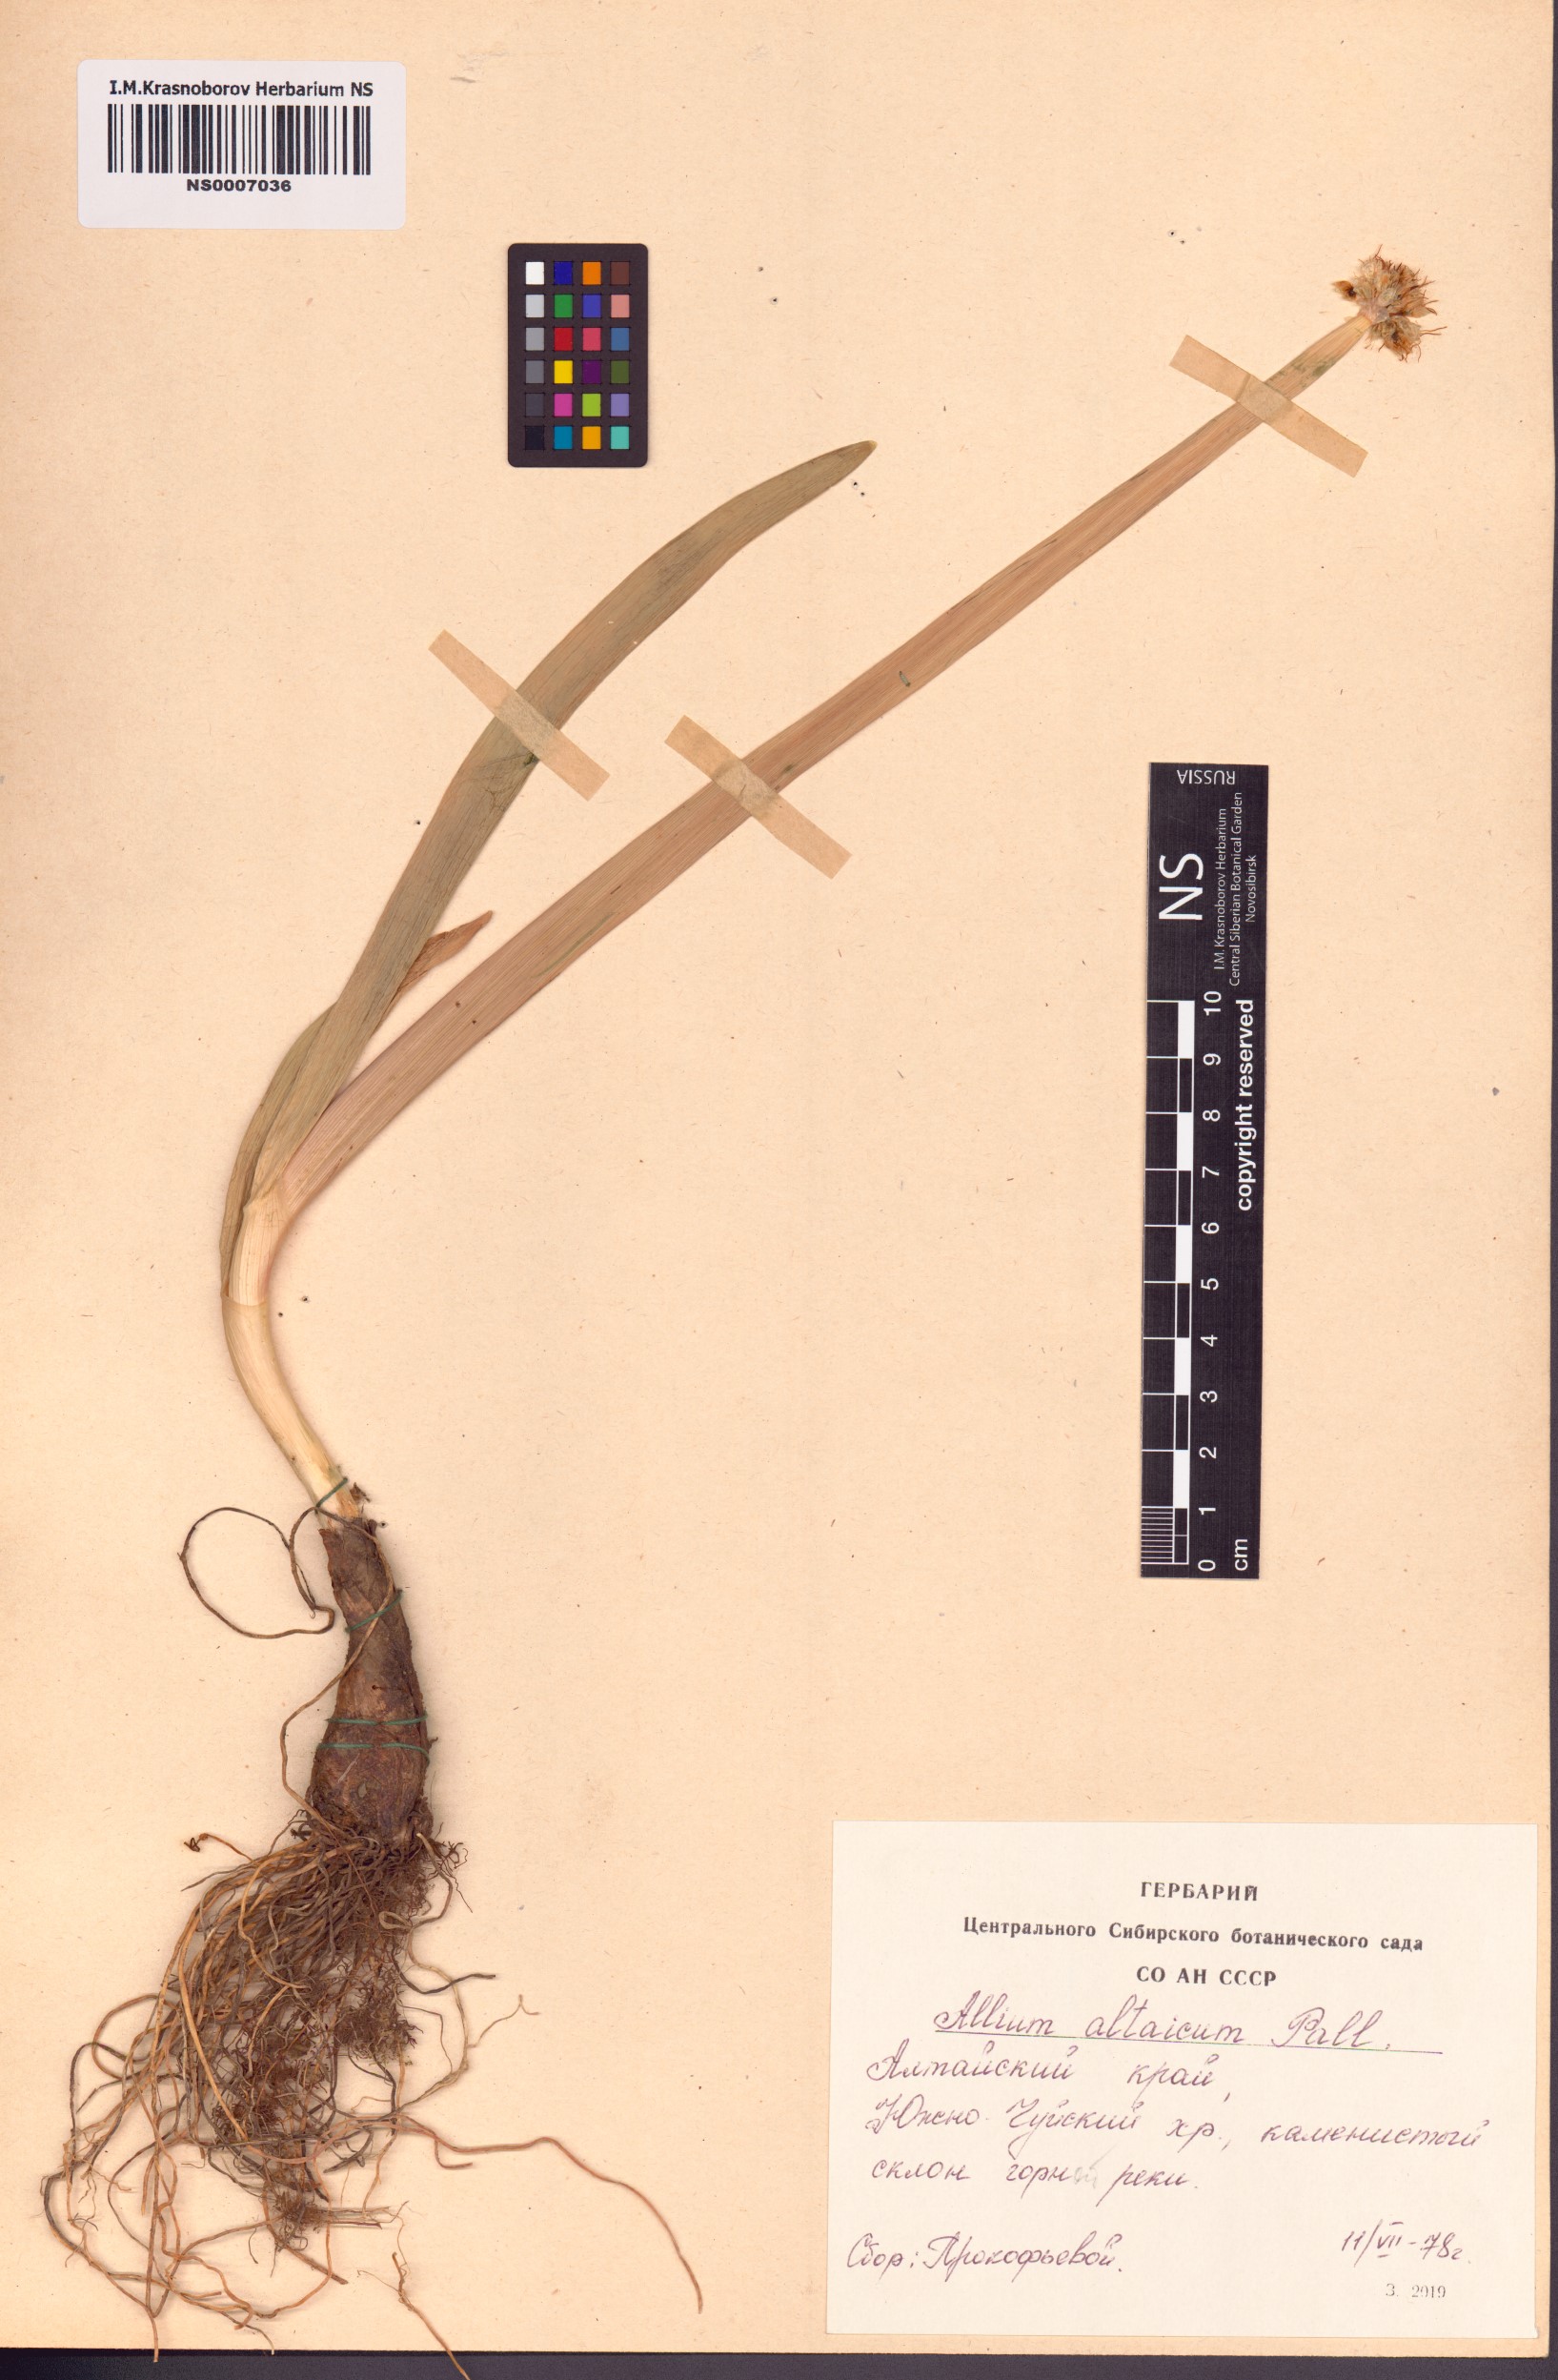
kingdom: Plantae
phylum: Tracheophyta
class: Liliopsida
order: Asparagales
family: Amaryllidaceae
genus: Allium
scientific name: Allium altaicum
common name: Altai onion
